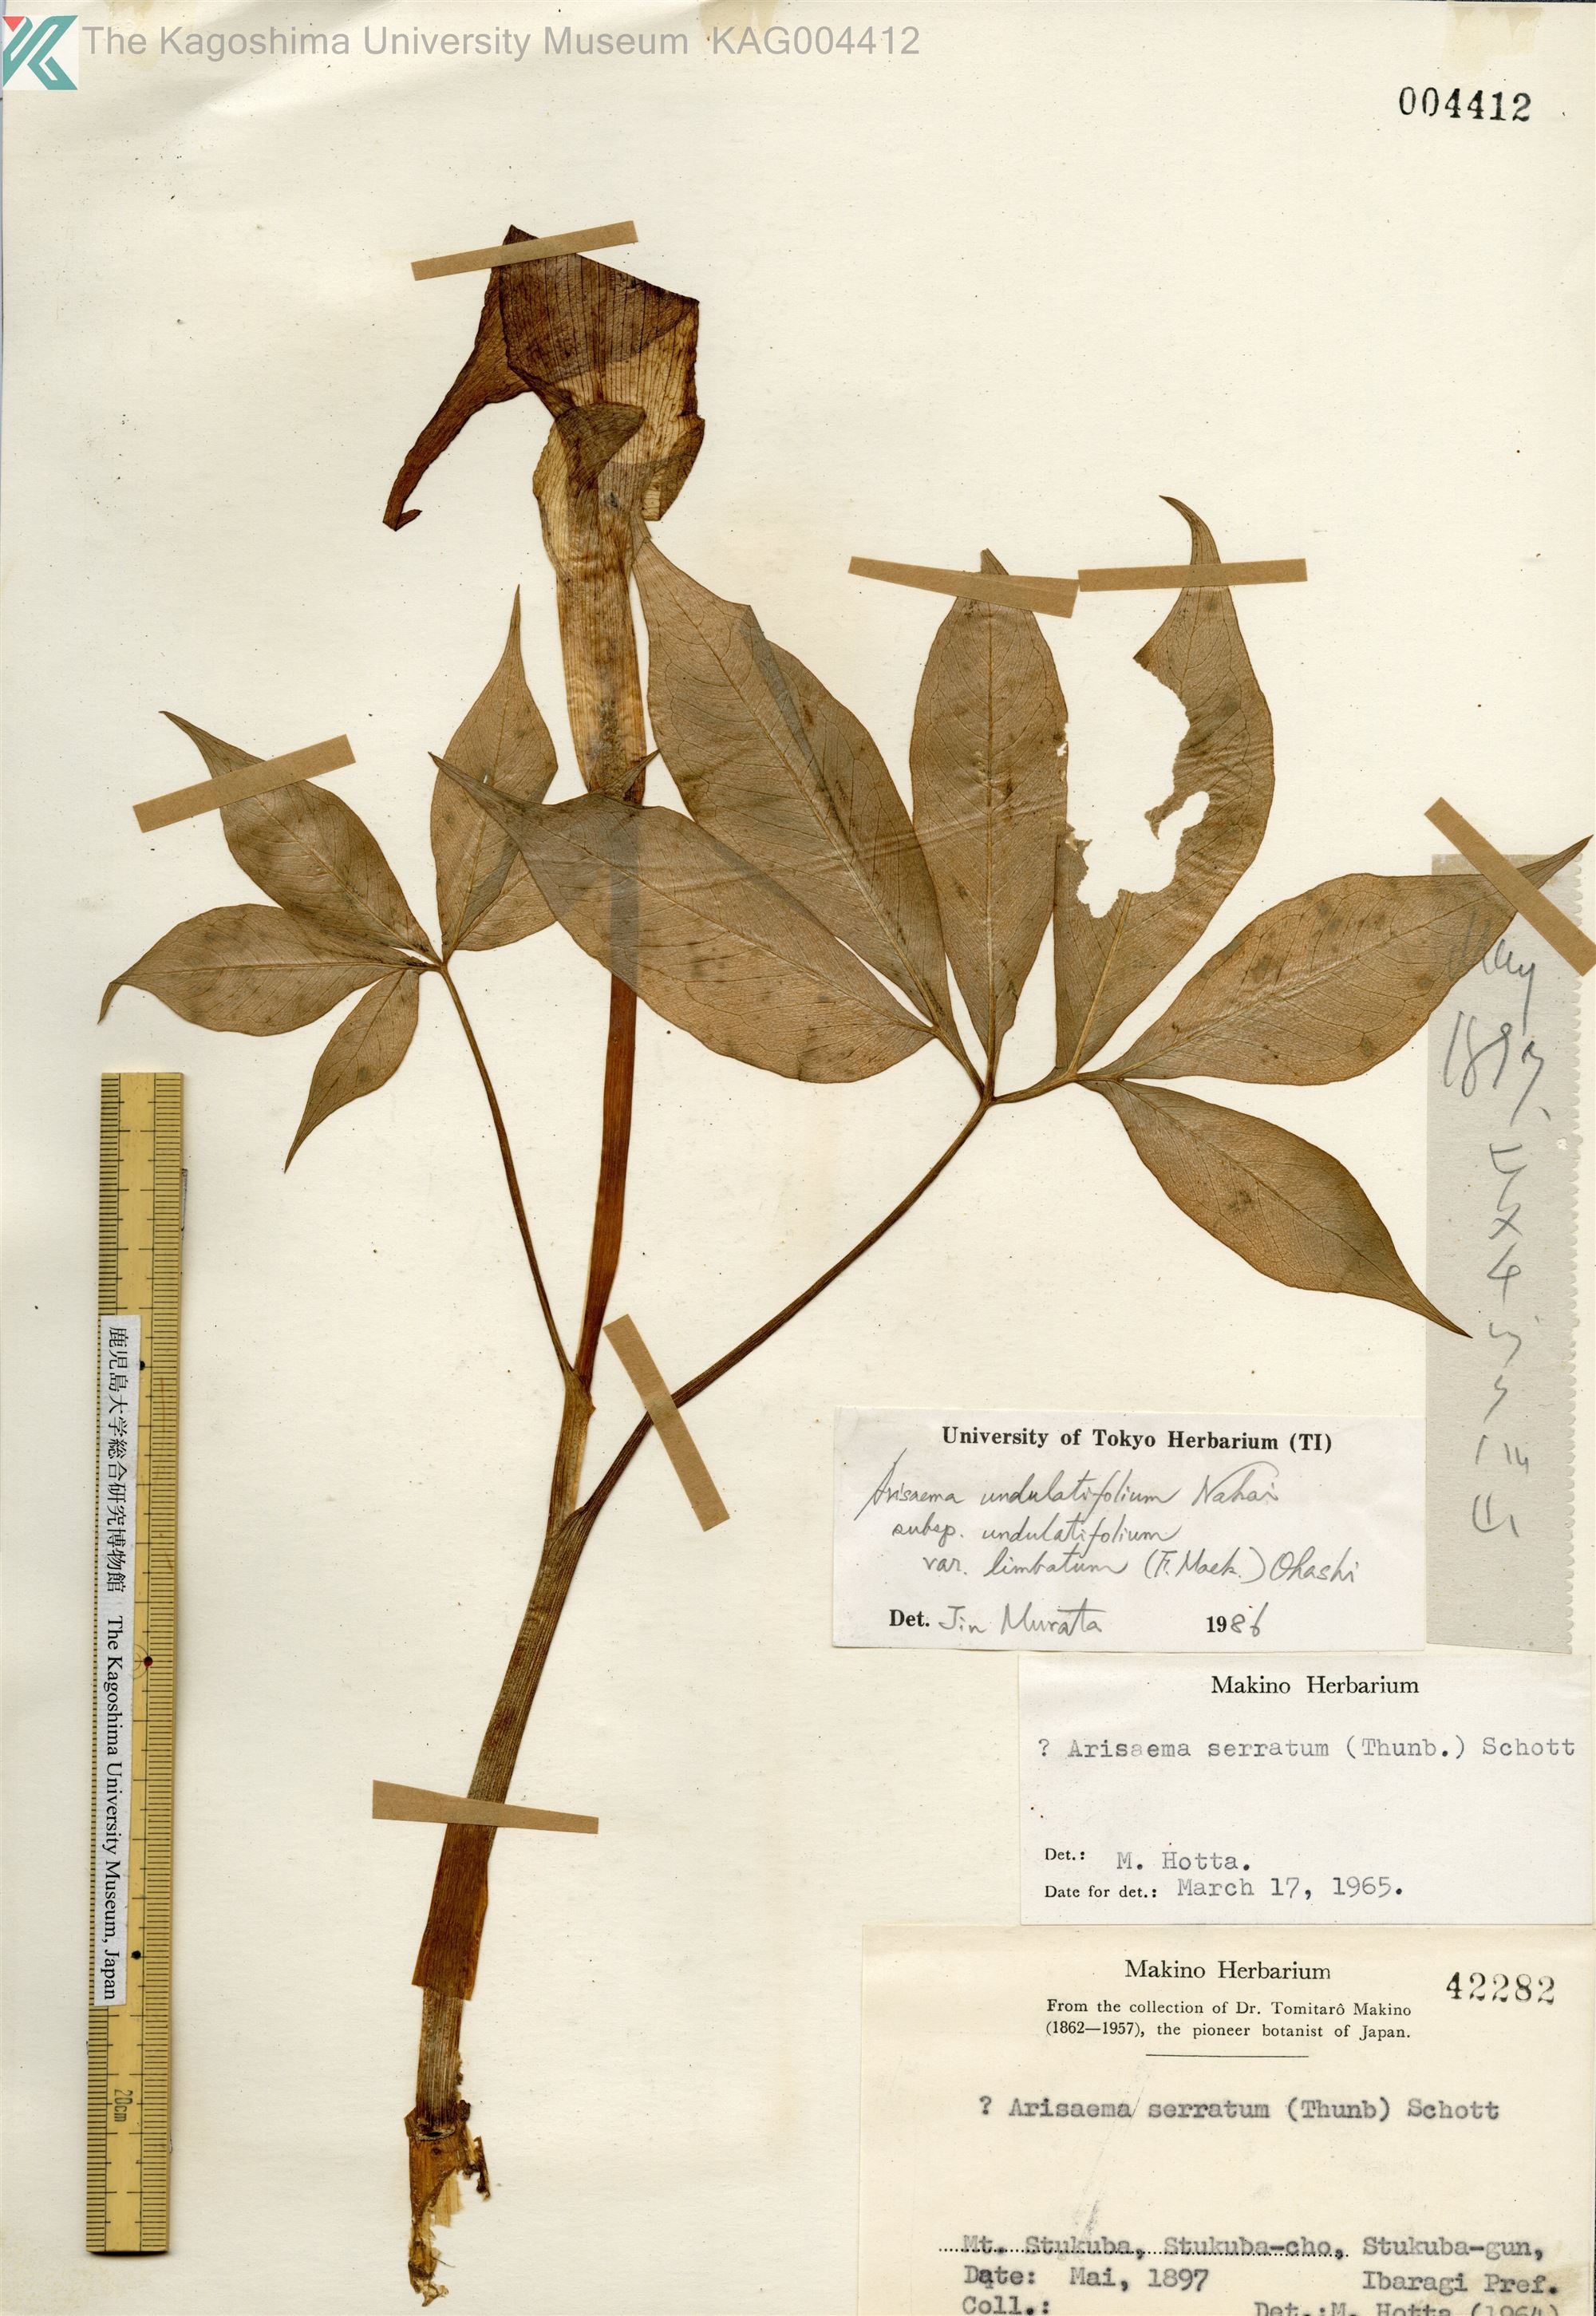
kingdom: Plantae
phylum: Tracheophyta
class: Liliopsida
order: Alismatales
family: Araceae
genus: Arisaema
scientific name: Arisaema consanguineum
